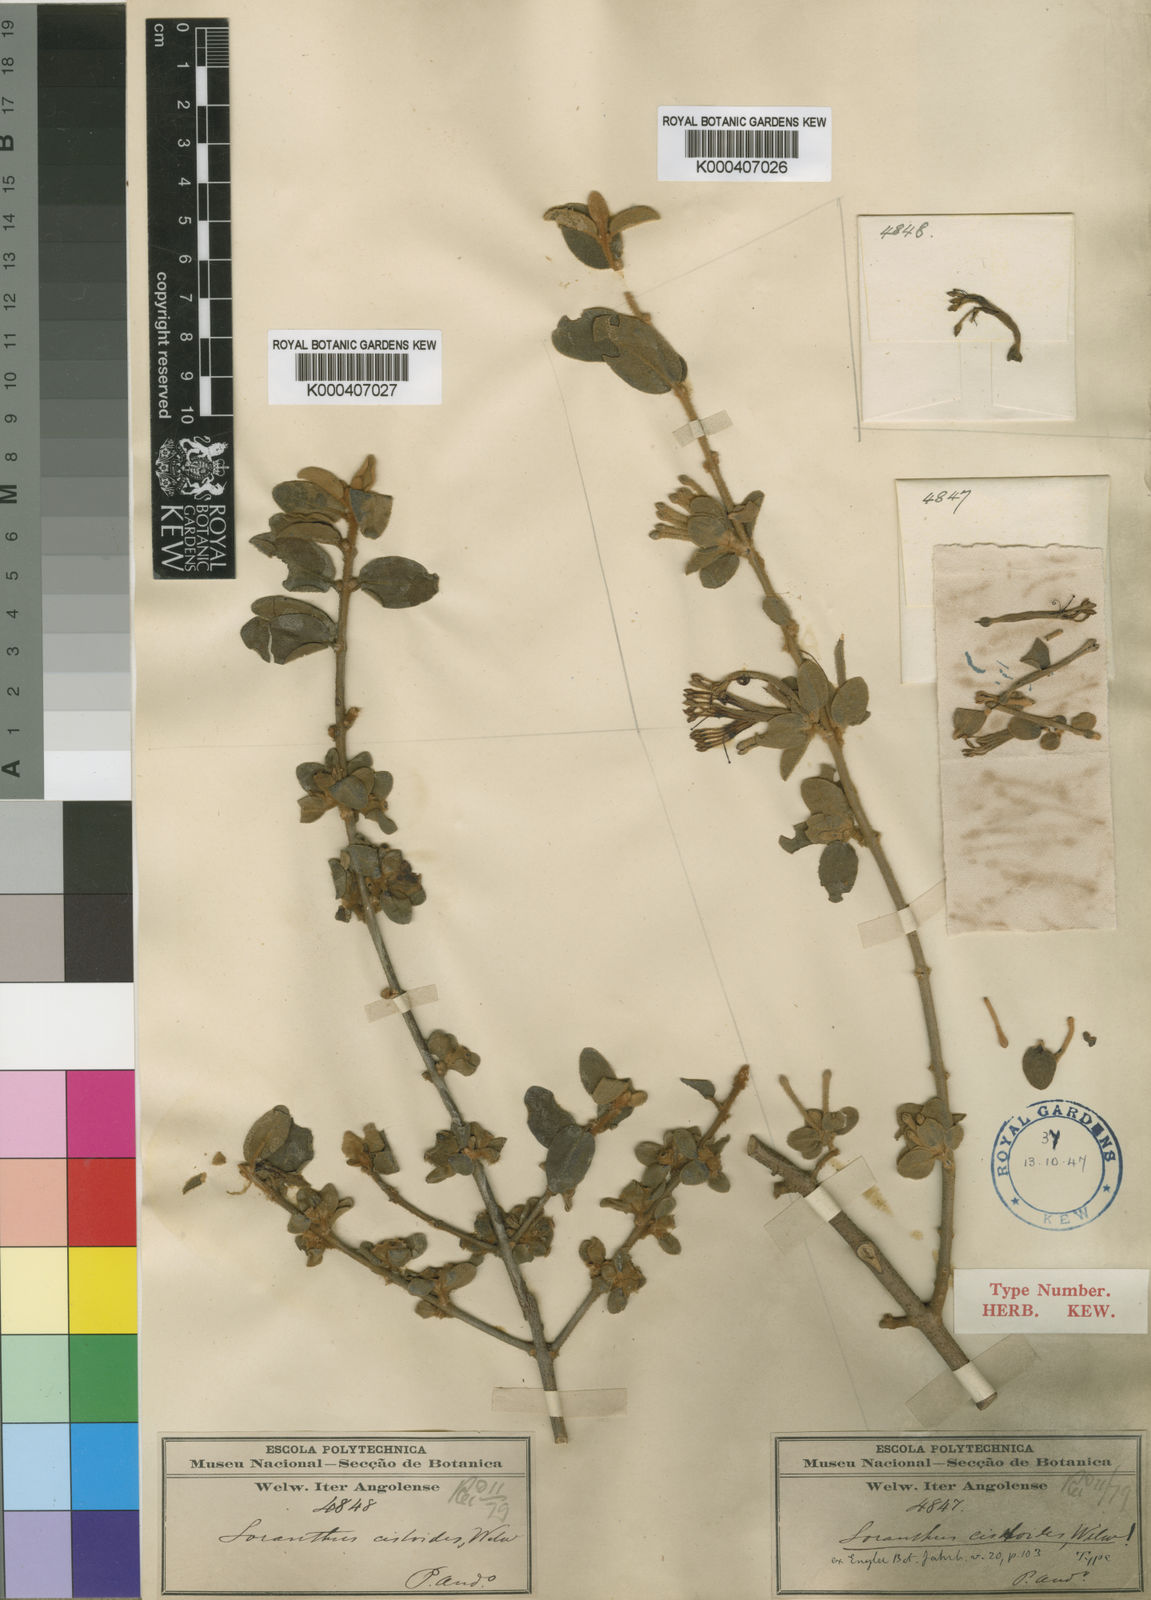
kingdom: Plantae
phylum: Tracheophyta
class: Magnoliopsida
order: Santalales
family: Loranthaceae
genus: Phragmanthera
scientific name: Phragmanthera glaucocarpa
